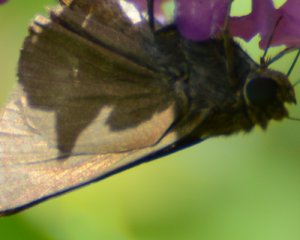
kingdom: Animalia
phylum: Arthropoda
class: Insecta
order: Lepidoptera
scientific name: Lepidoptera
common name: Butterflies
